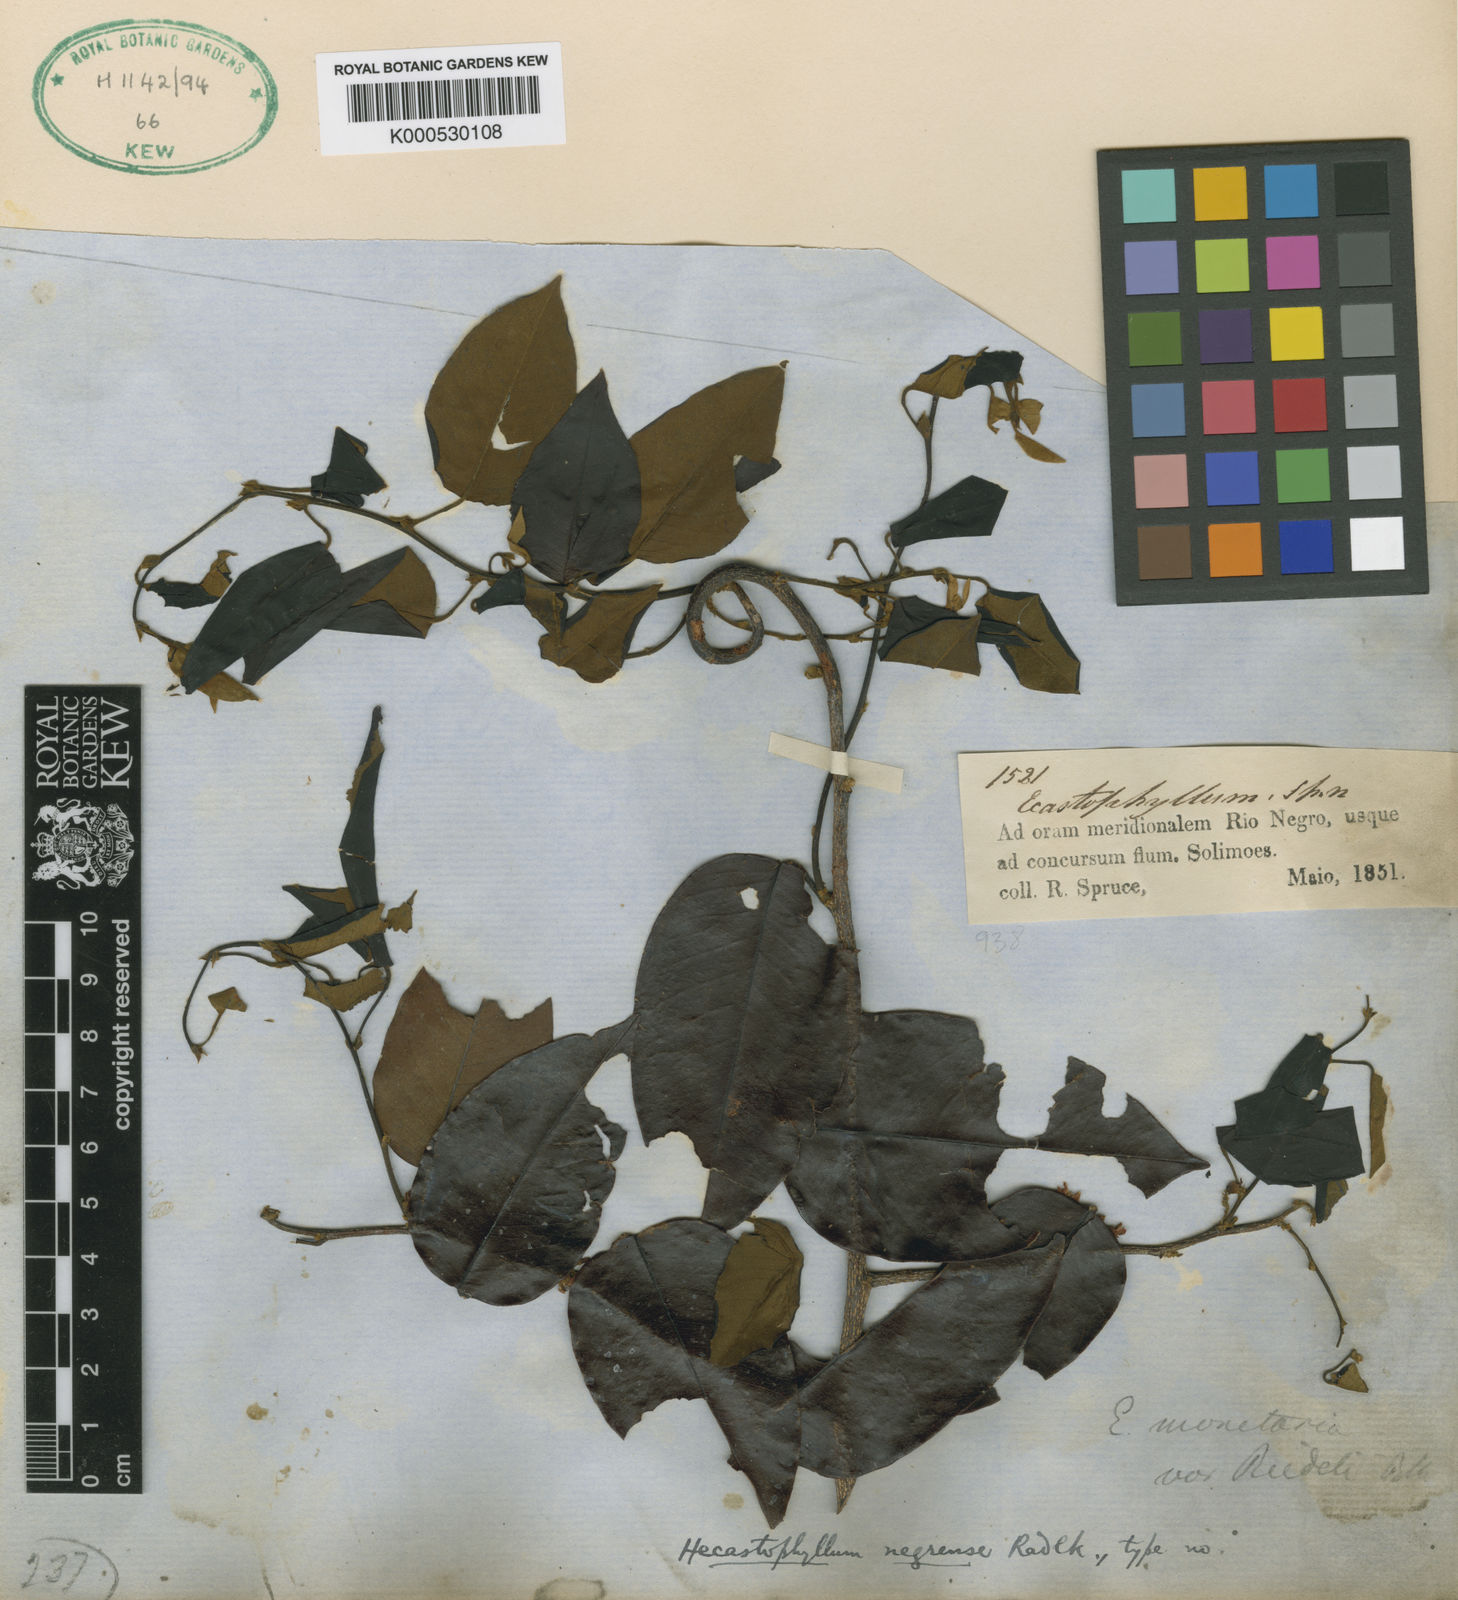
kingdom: Plantae
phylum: Tracheophyta
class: Magnoliopsida
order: Fabales
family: Fabaceae
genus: Dalbergia
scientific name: Dalbergia negrensis
